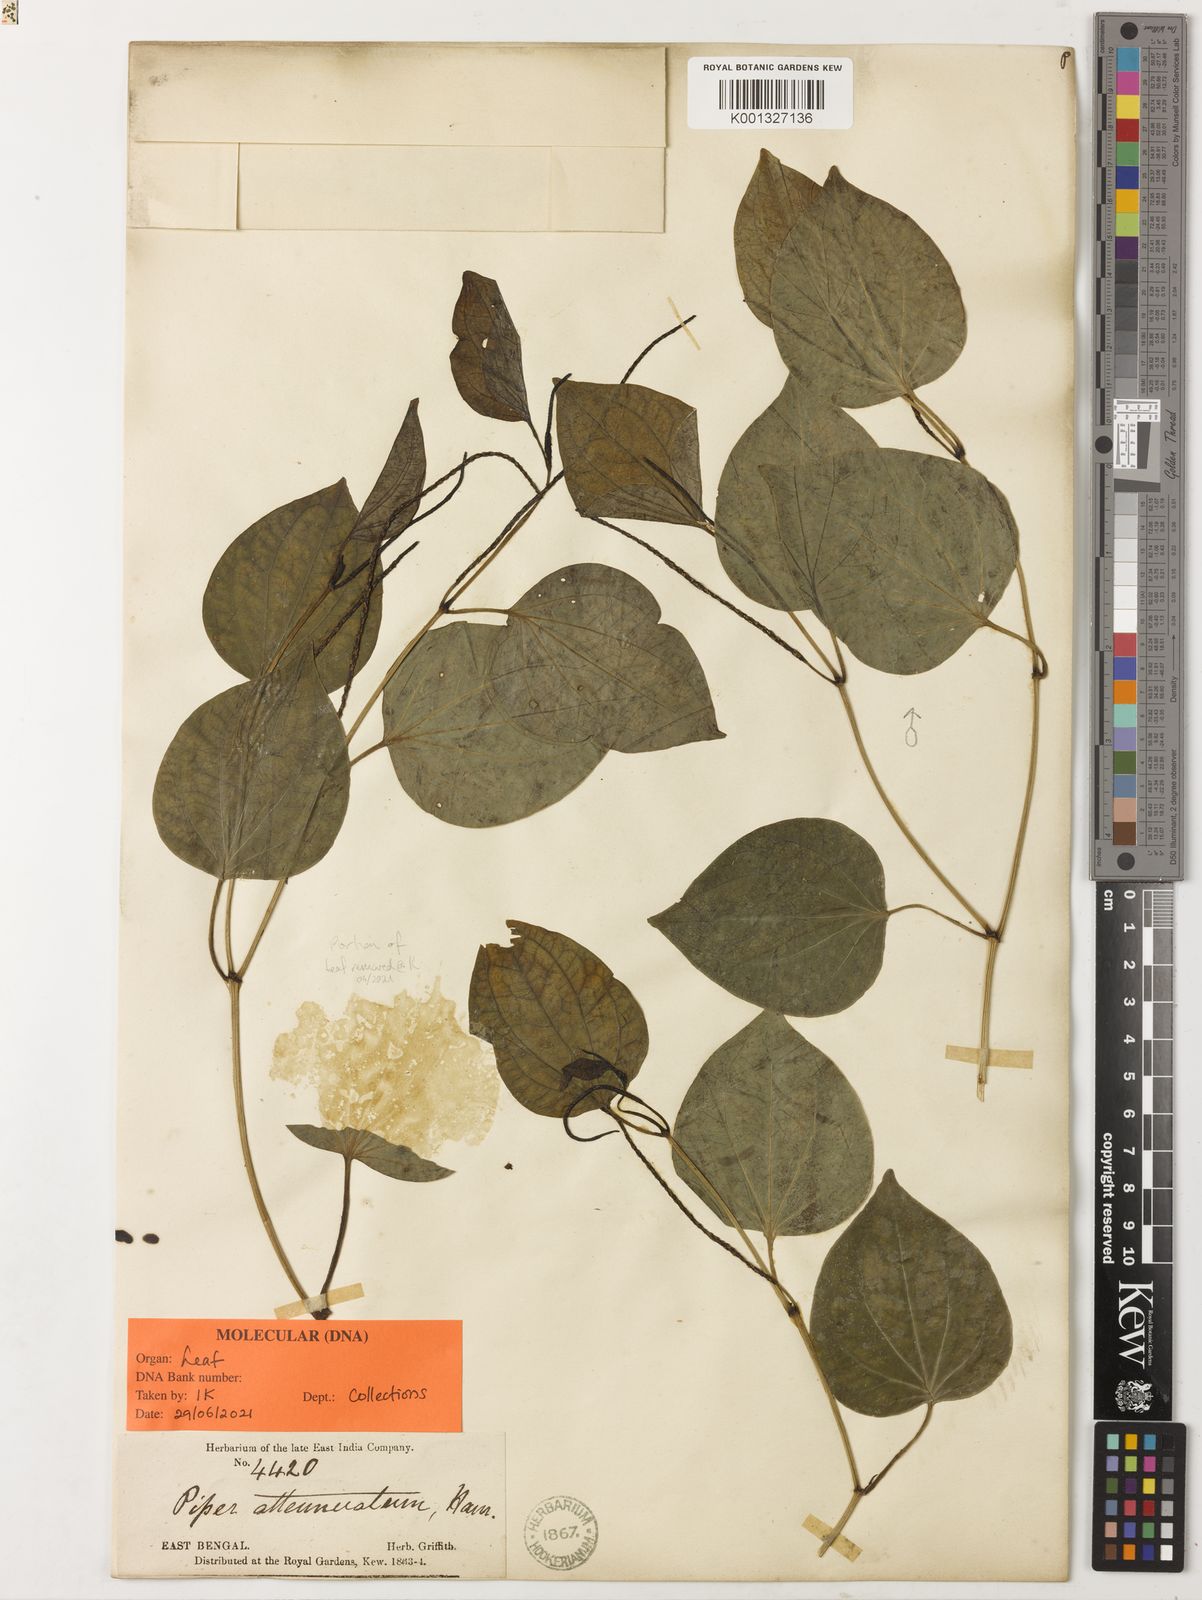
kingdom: Plantae
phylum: Tracheophyta
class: Magnoliopsida
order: Piperales
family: Piperaceae
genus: Piper
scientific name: Piper
